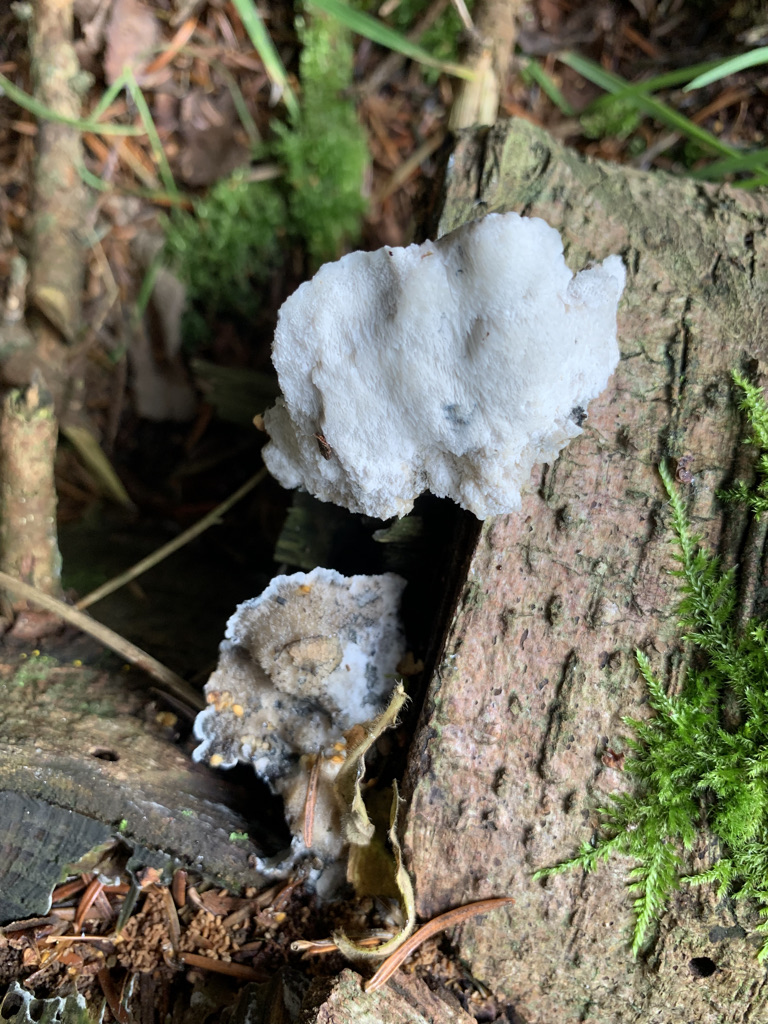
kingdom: Fungi
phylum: Basidiomycota
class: Agaricomycetes
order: Polyporales
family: Polyporaceae
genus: Cyanosporus
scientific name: Cyanosporus caesius
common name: blålig kødporesvamp
